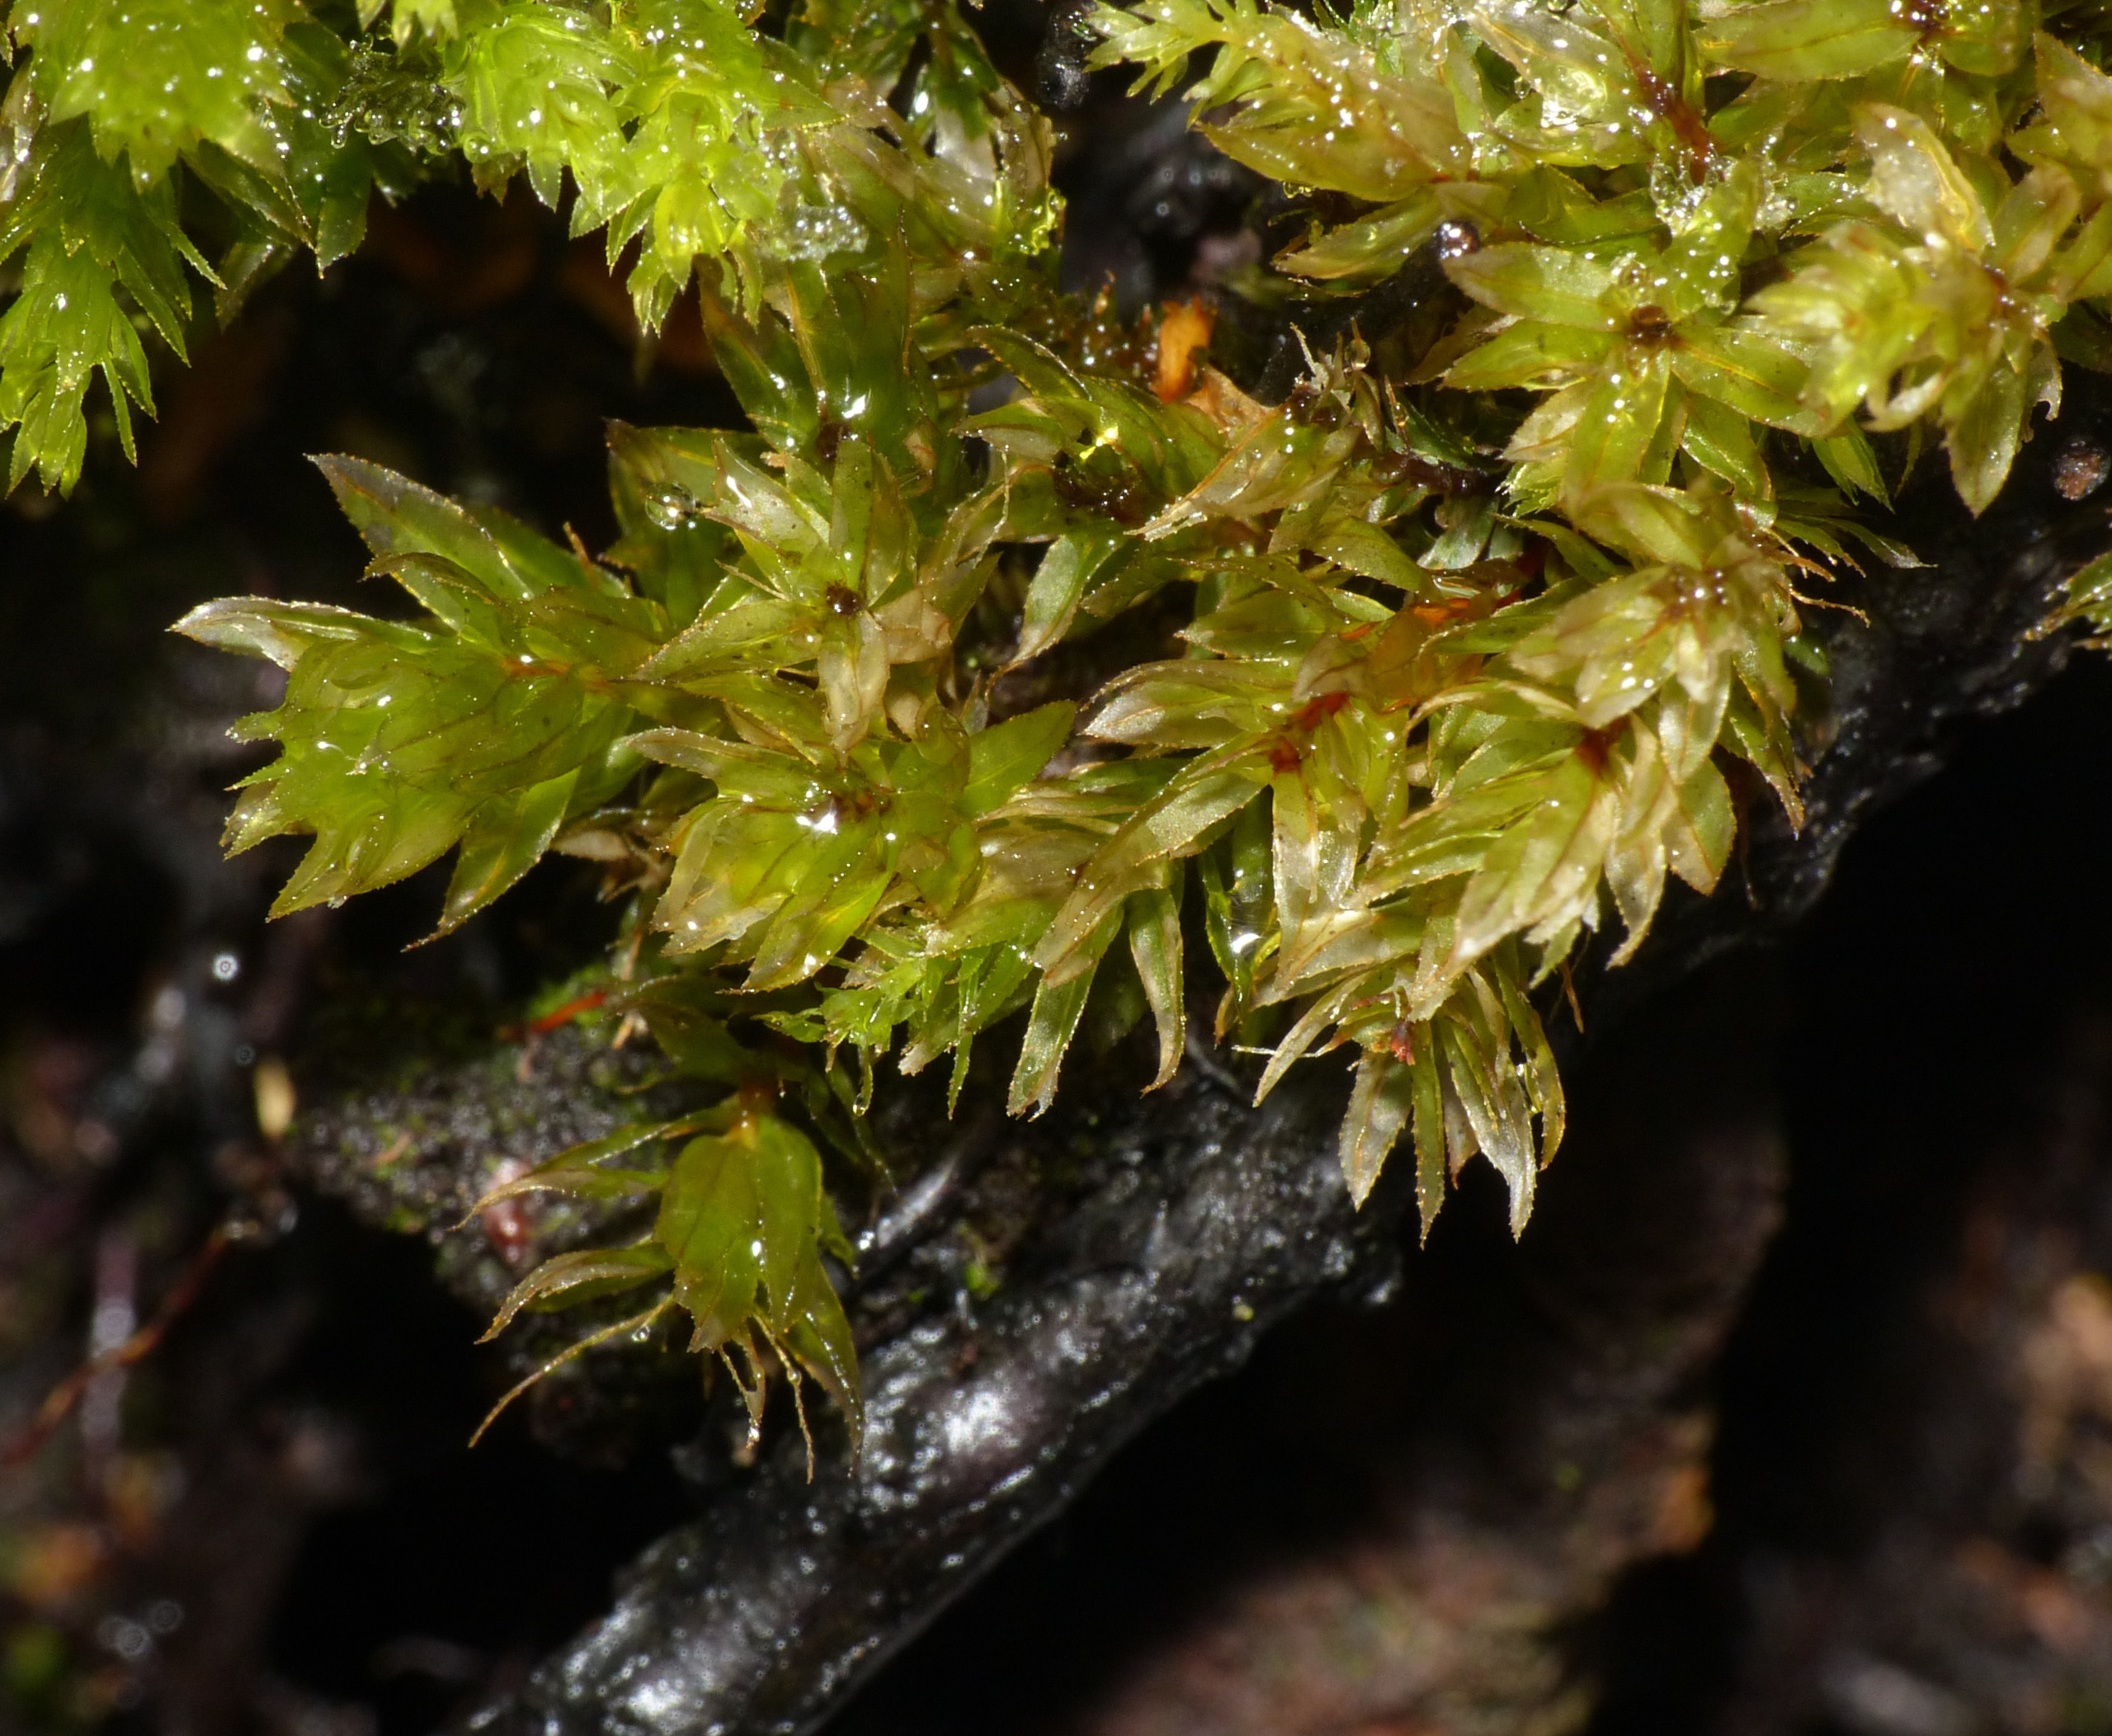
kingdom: Plantae
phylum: Bryophyta
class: Bryopsida
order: Bryales
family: Mniaceae
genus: Mnium
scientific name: Mnium hornum
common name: Brunfiltet stjernemos
